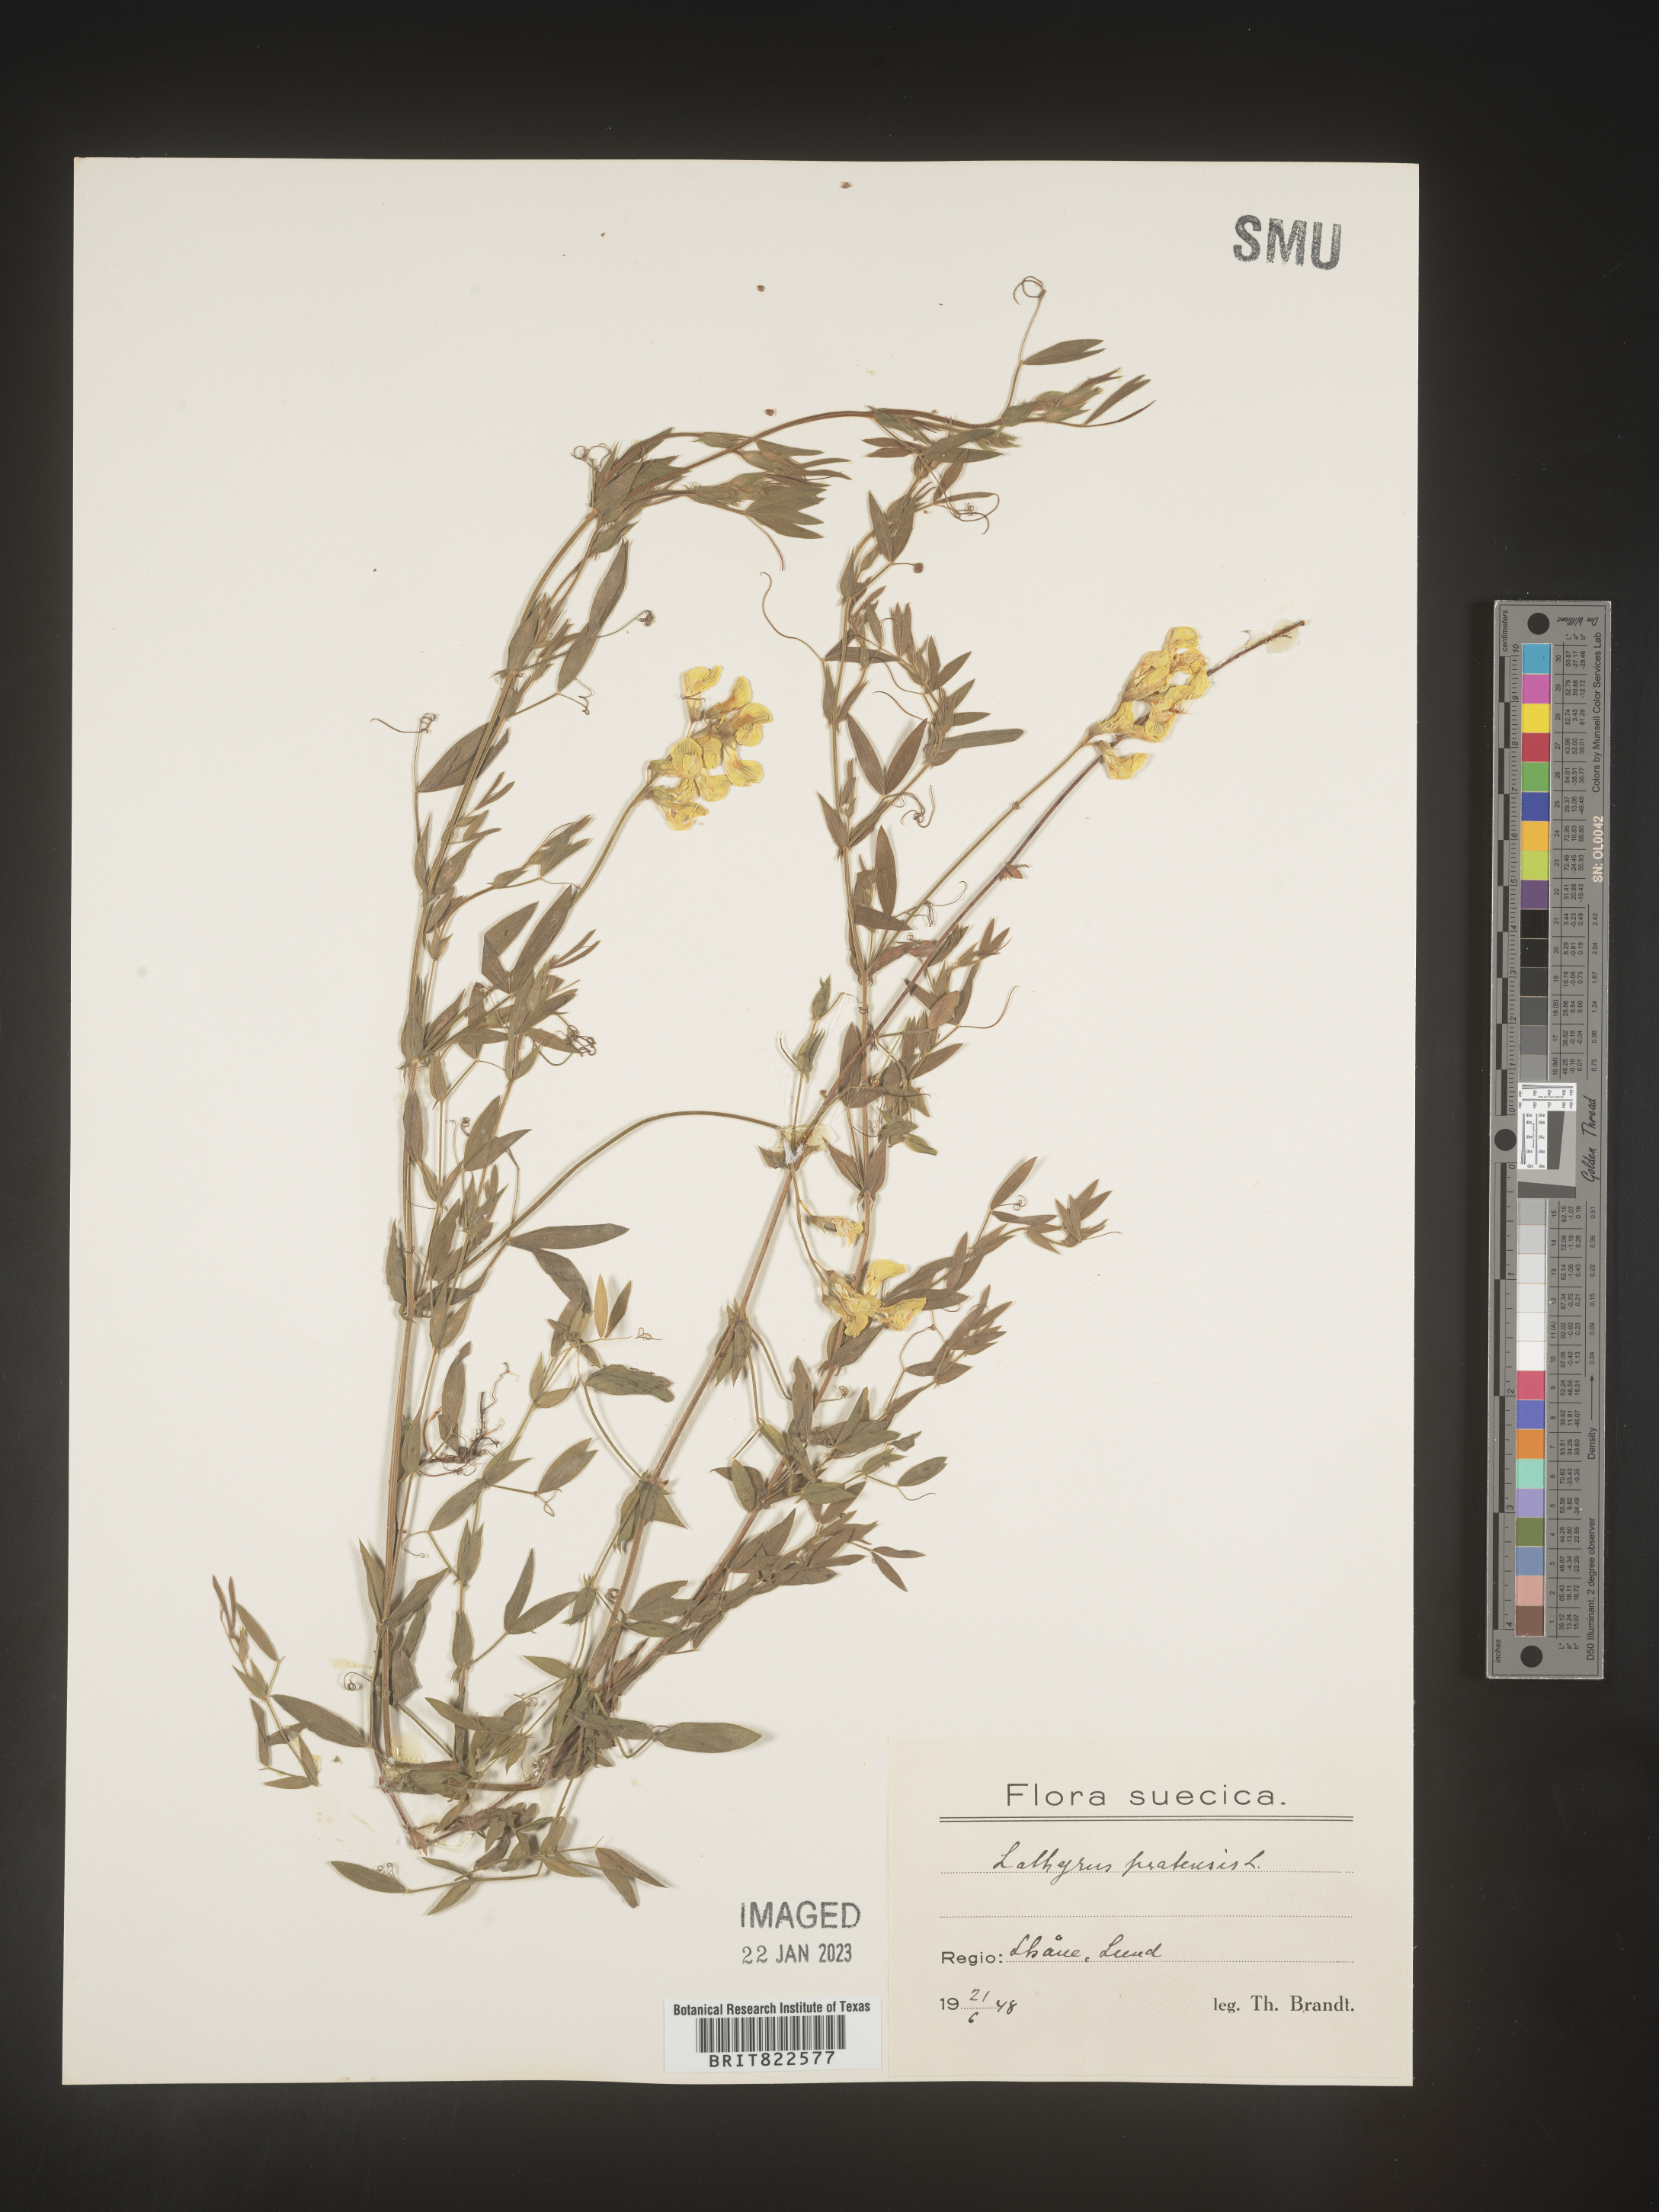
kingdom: Plantae
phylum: Tracheophyta
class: Magnoliopsida
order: Fabales
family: Fabaceae
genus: Lathyrus
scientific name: Lathyrus
